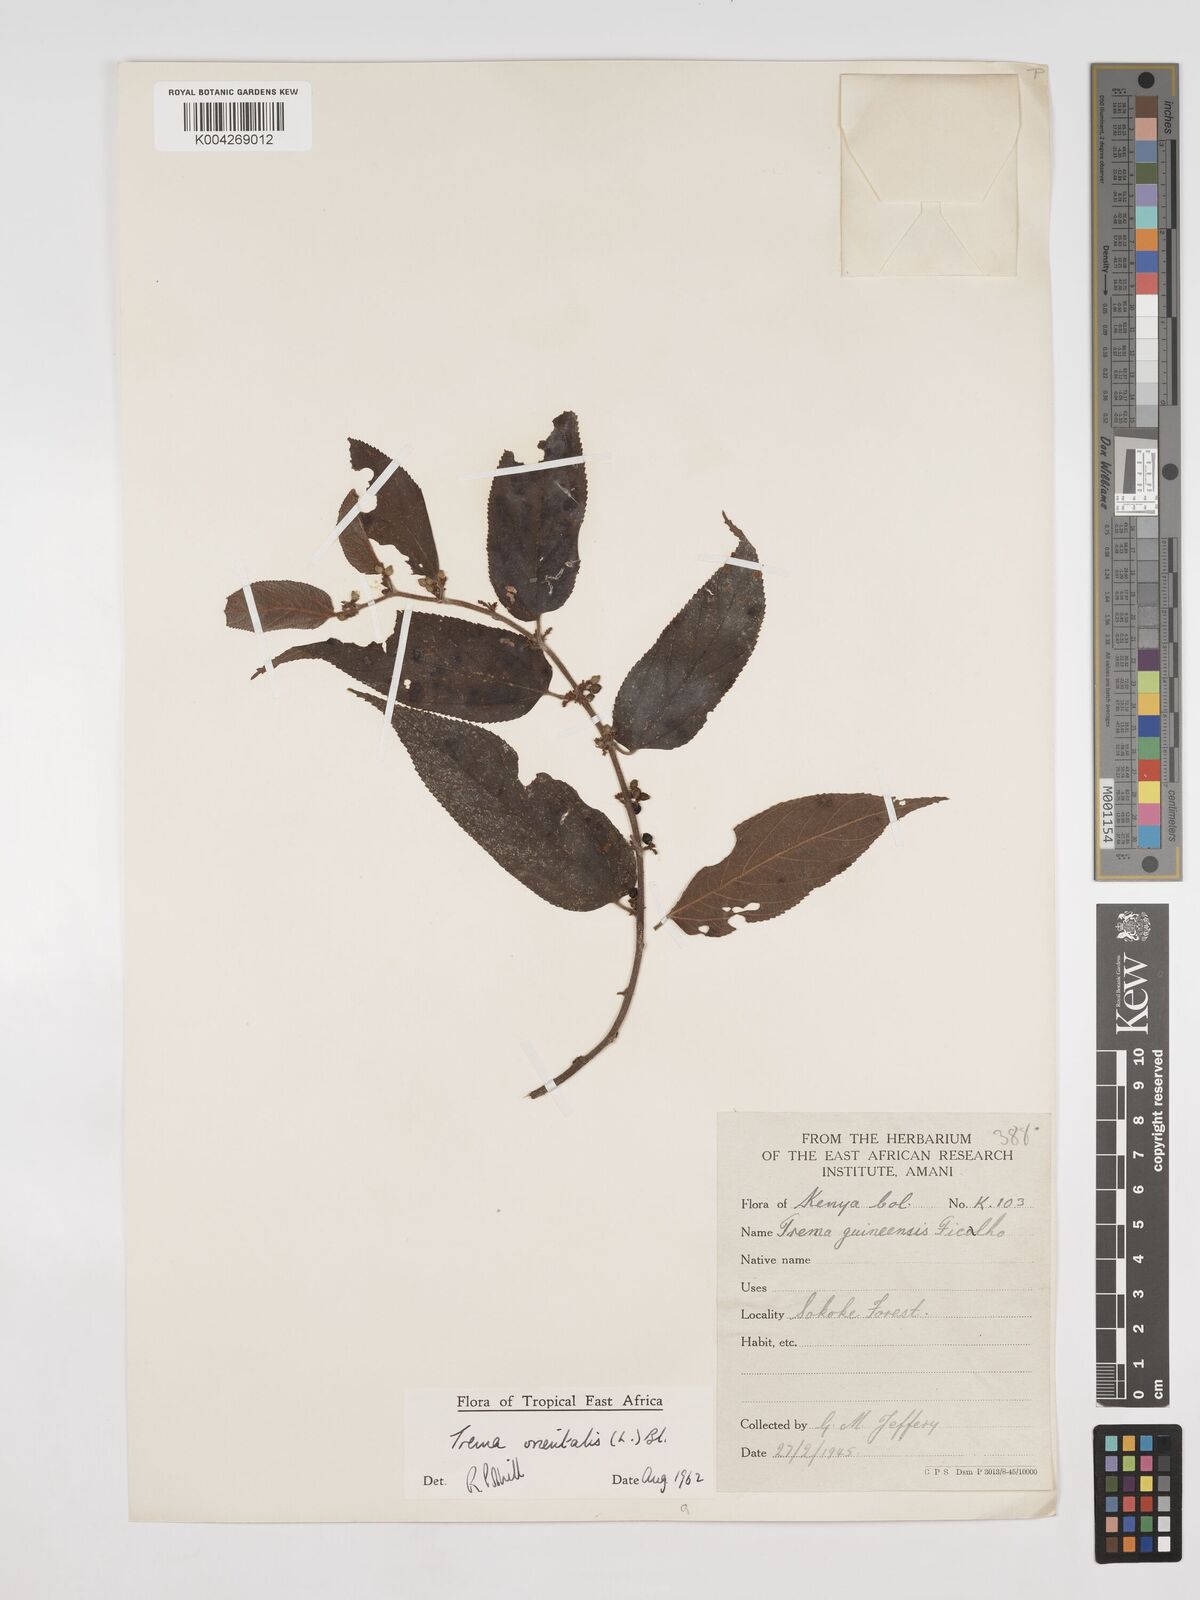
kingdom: Plantae
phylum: Tracheophyta
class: Magnoliopsida
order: Rosales
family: Cannabaceae
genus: Trema
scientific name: Trema orientale
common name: Indian charcoal tree
